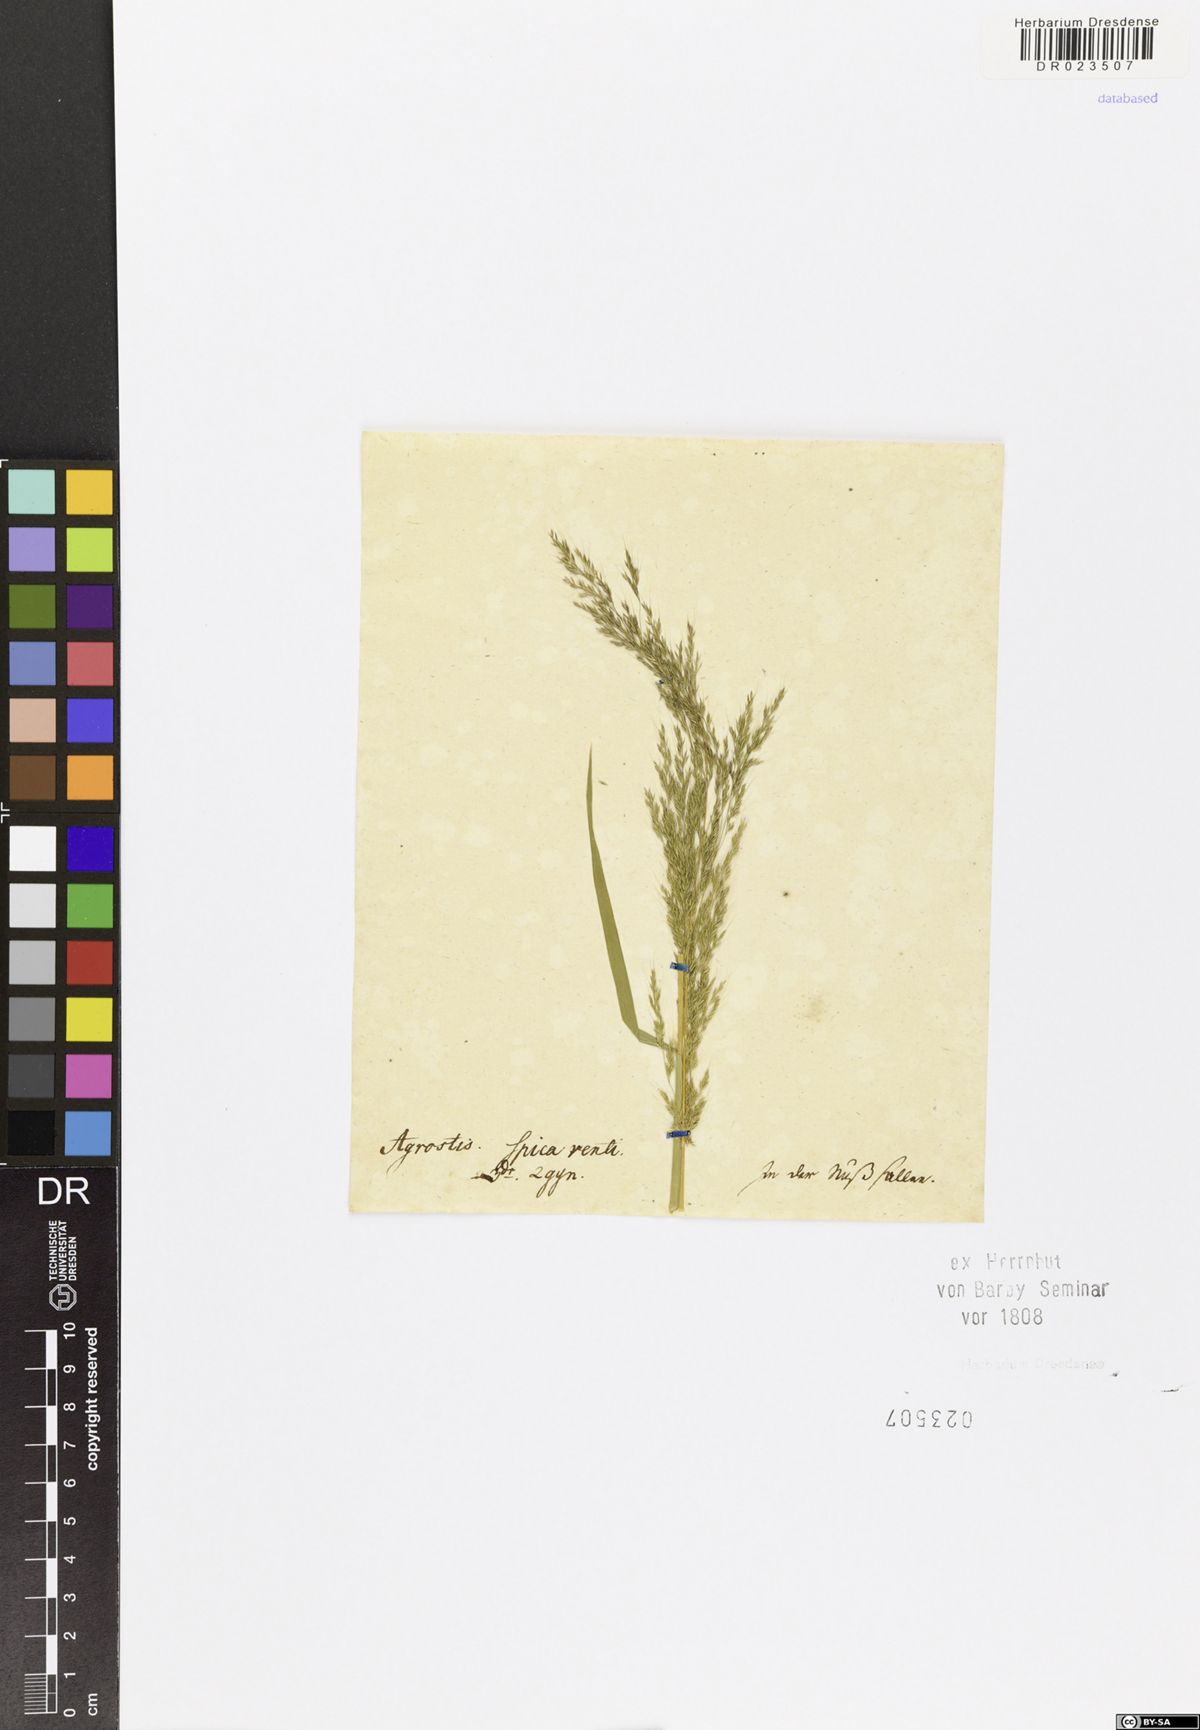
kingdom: Plantae
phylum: Tracheophyta
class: Liliopsida
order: Poales
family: Poaceae
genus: Apera
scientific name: Apera spica-venti
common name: Loose silky-bent
